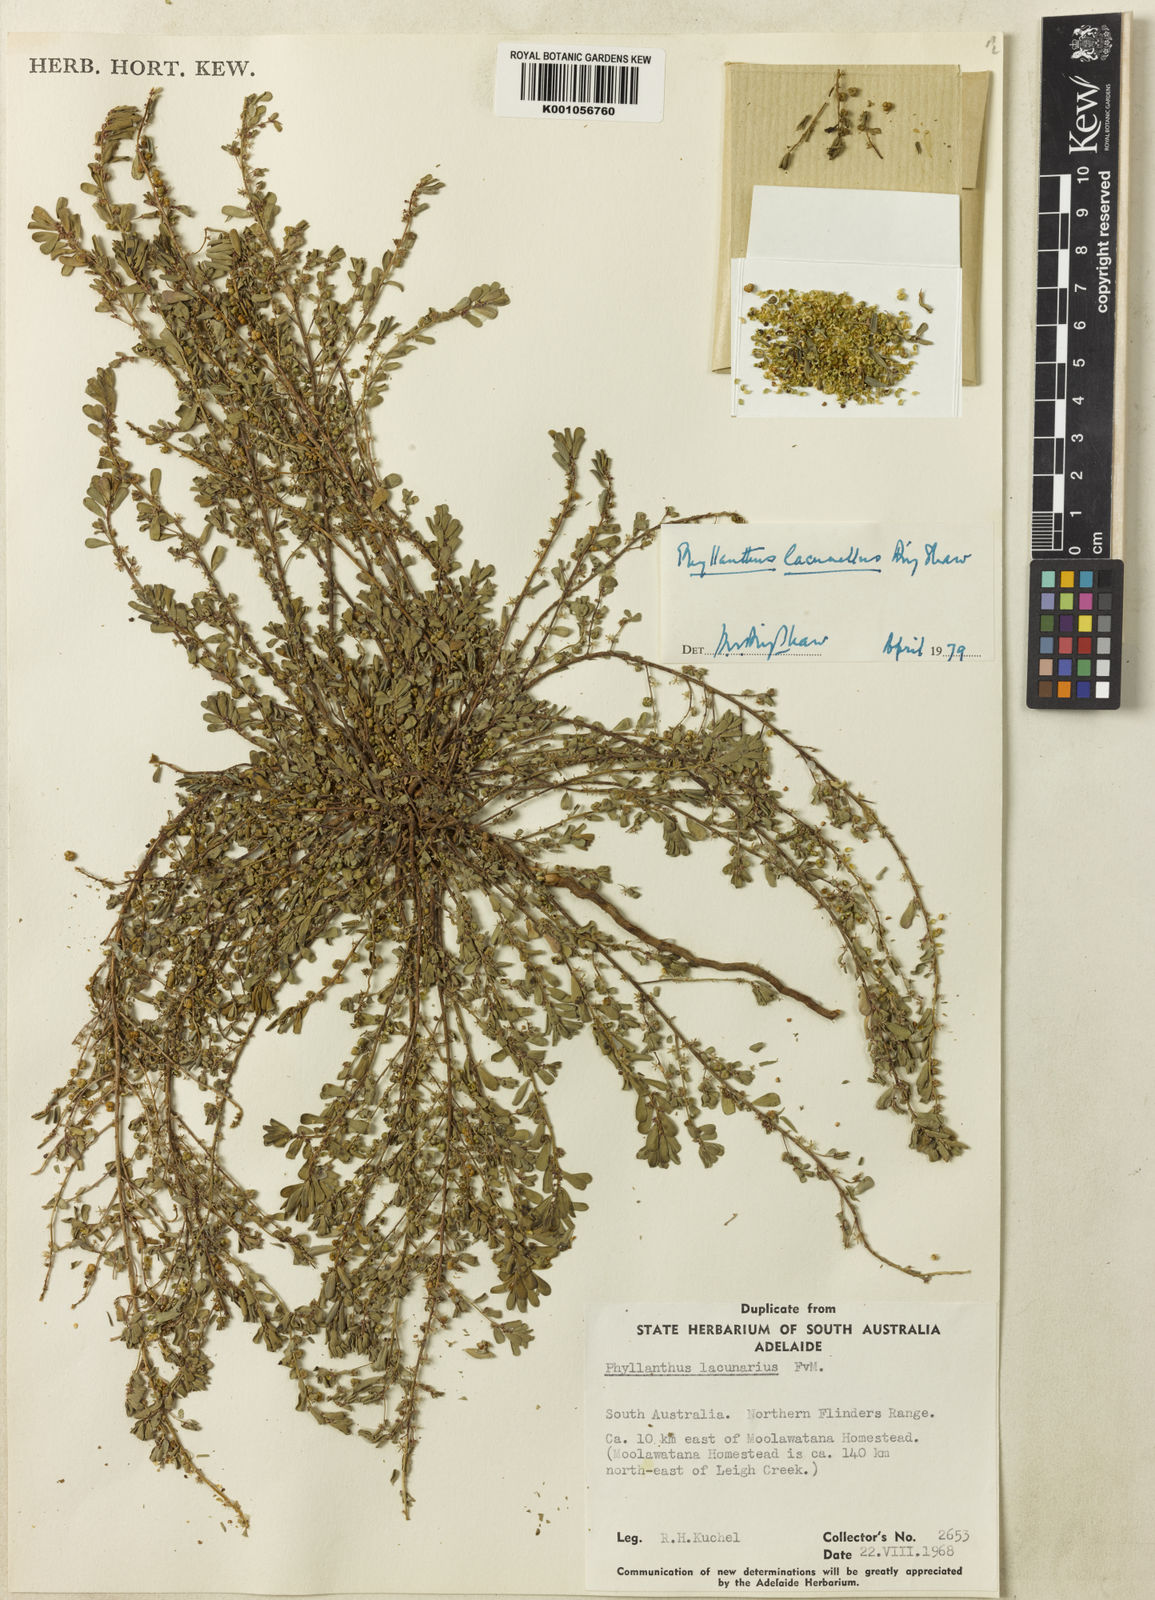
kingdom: Plantae
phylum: Tracheophyta
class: Magnoliopsida
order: Malpighiales
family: Phyllanthaceae
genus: Phyllanthus
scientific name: Phyllanthus lacunellus
